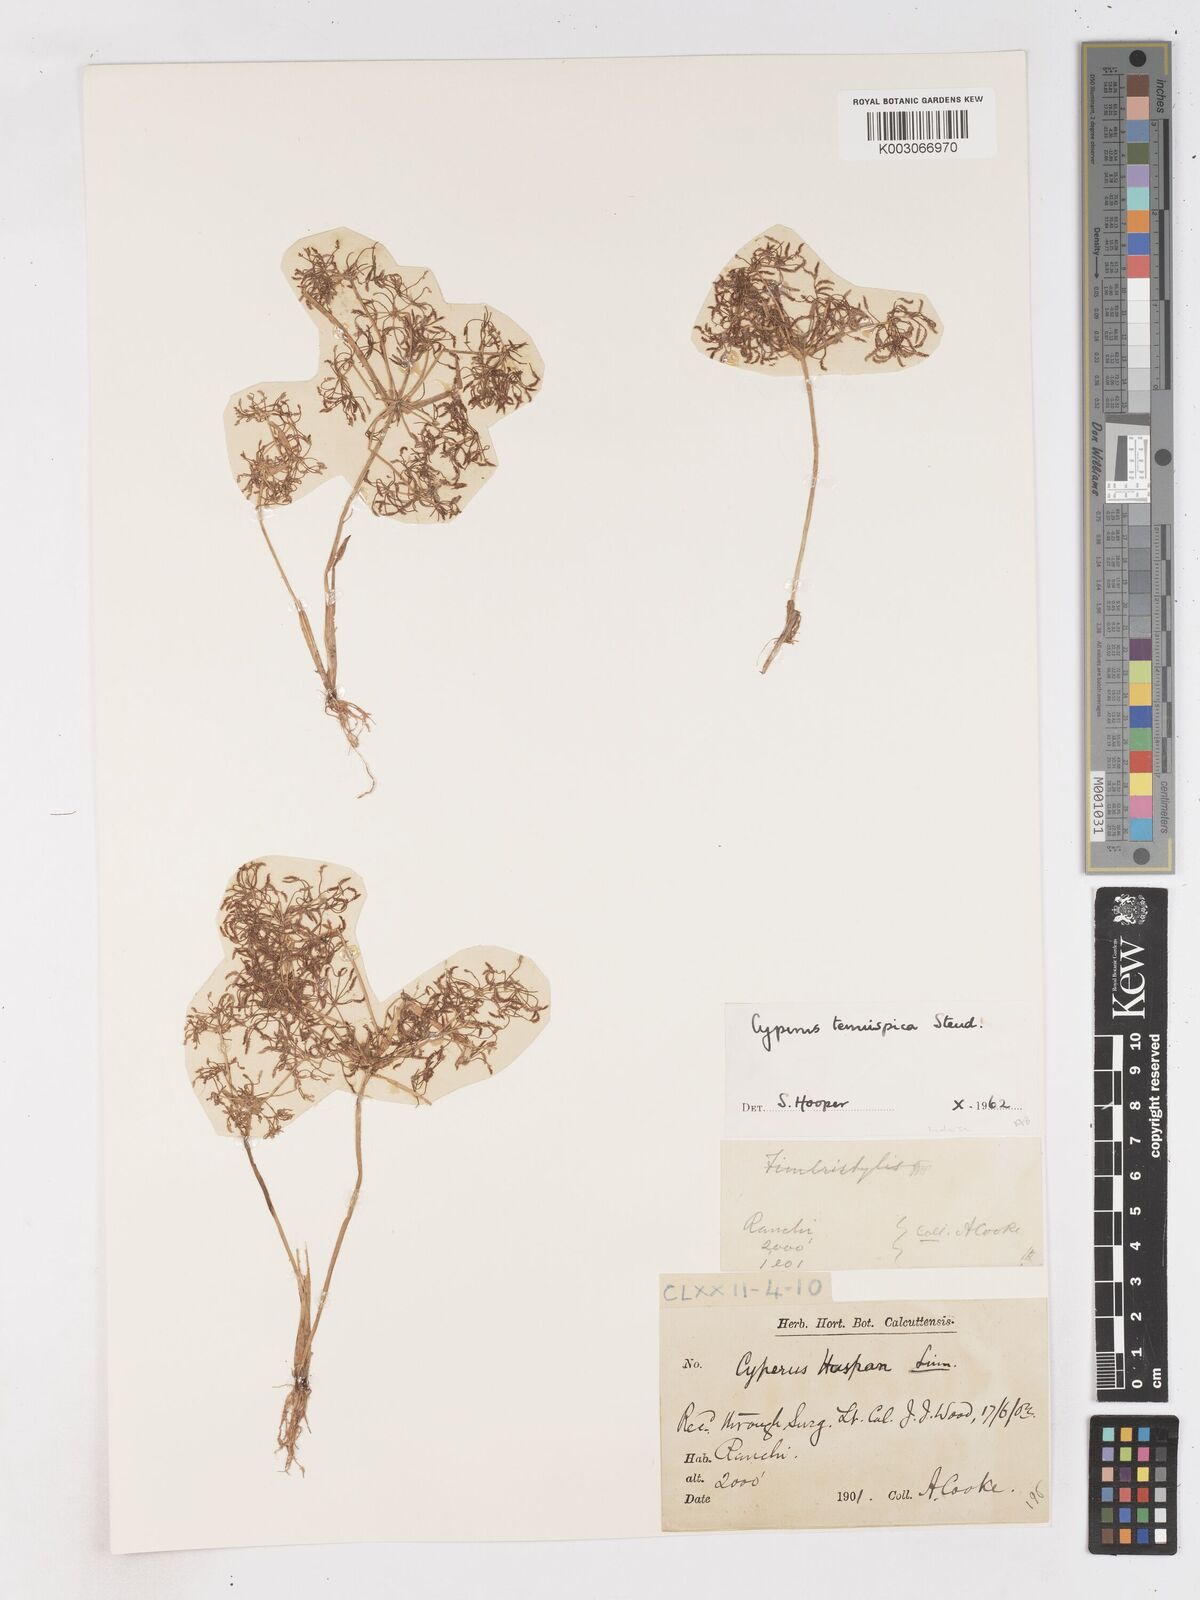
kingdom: Plantae
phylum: Tracheophyta
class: Liliopsida
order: Poales
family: Cyperaceae
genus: Cyperus
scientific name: Cyperus tenuispica
